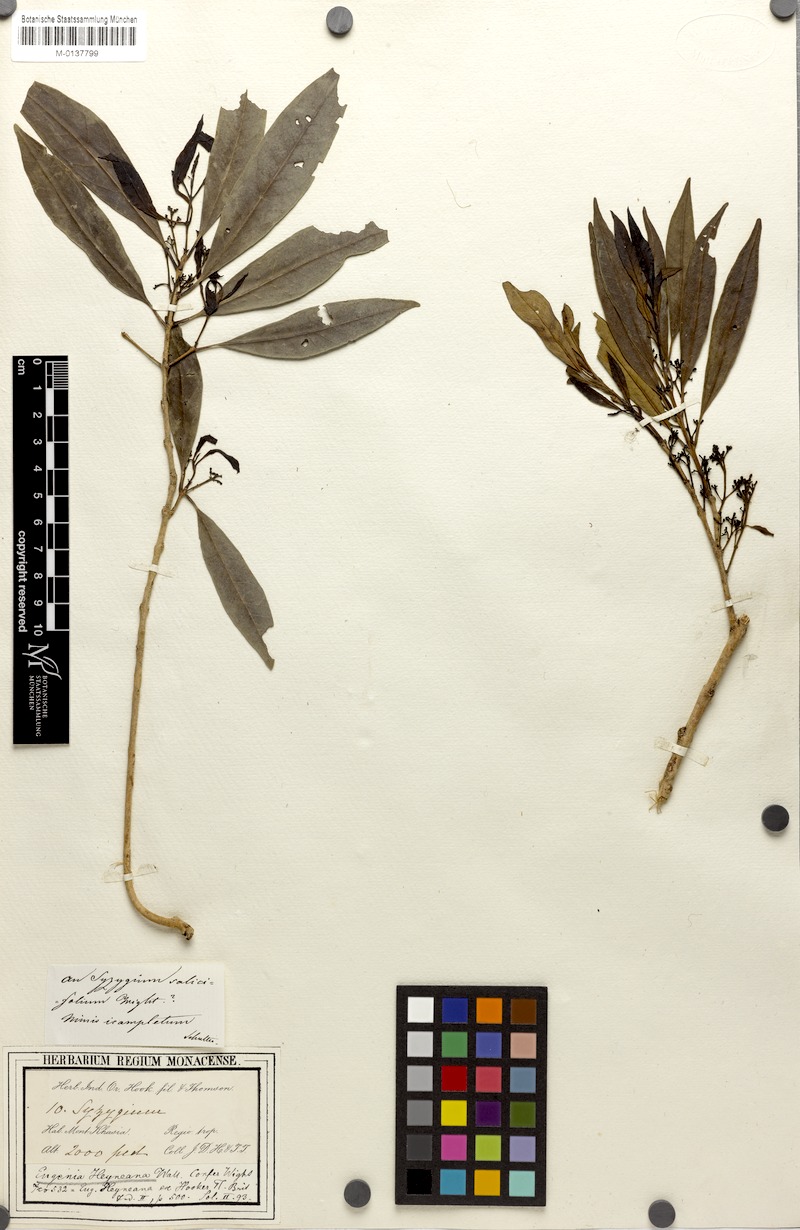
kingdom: Plantae
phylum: Tracheophyta
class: Magnoliopsida
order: Myrtales
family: Myrtaceae
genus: Syzygium
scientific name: Syzygium balsameum
